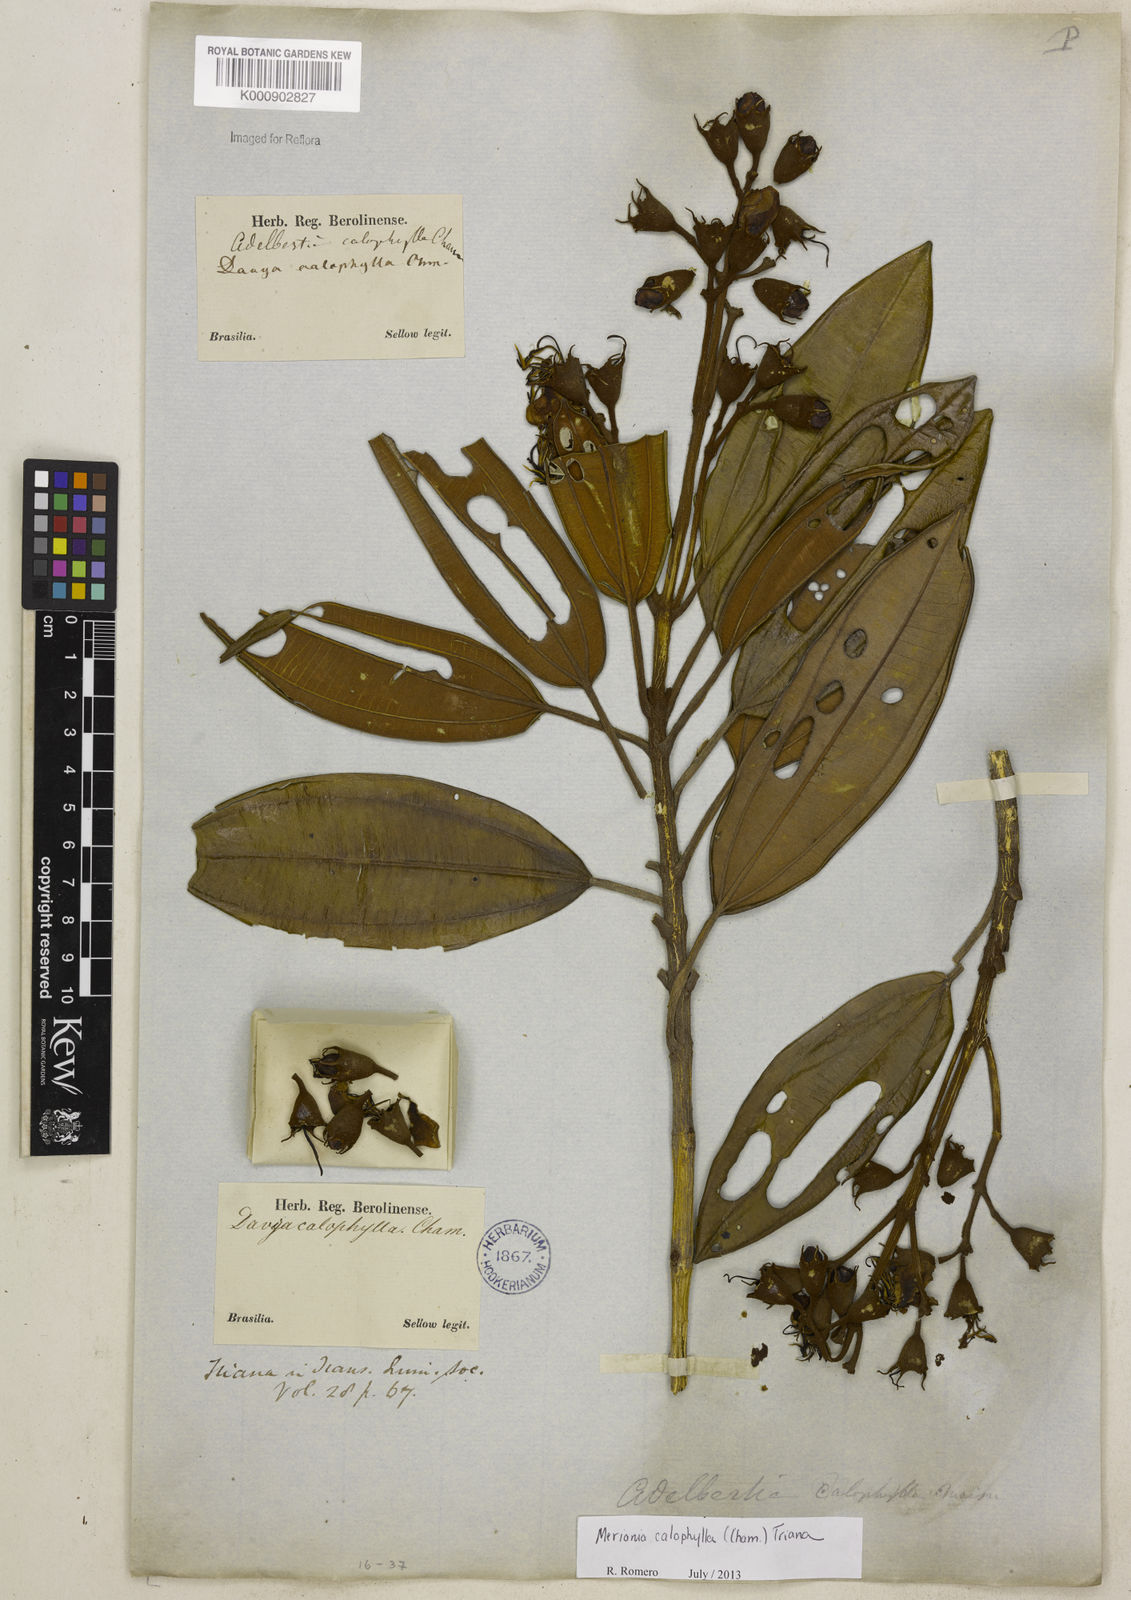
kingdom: Plantae
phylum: Tracheophyta
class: Magnoliopsida
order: Myrtales
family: Melastomataceae
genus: Meriania
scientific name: Meriania calophylla
